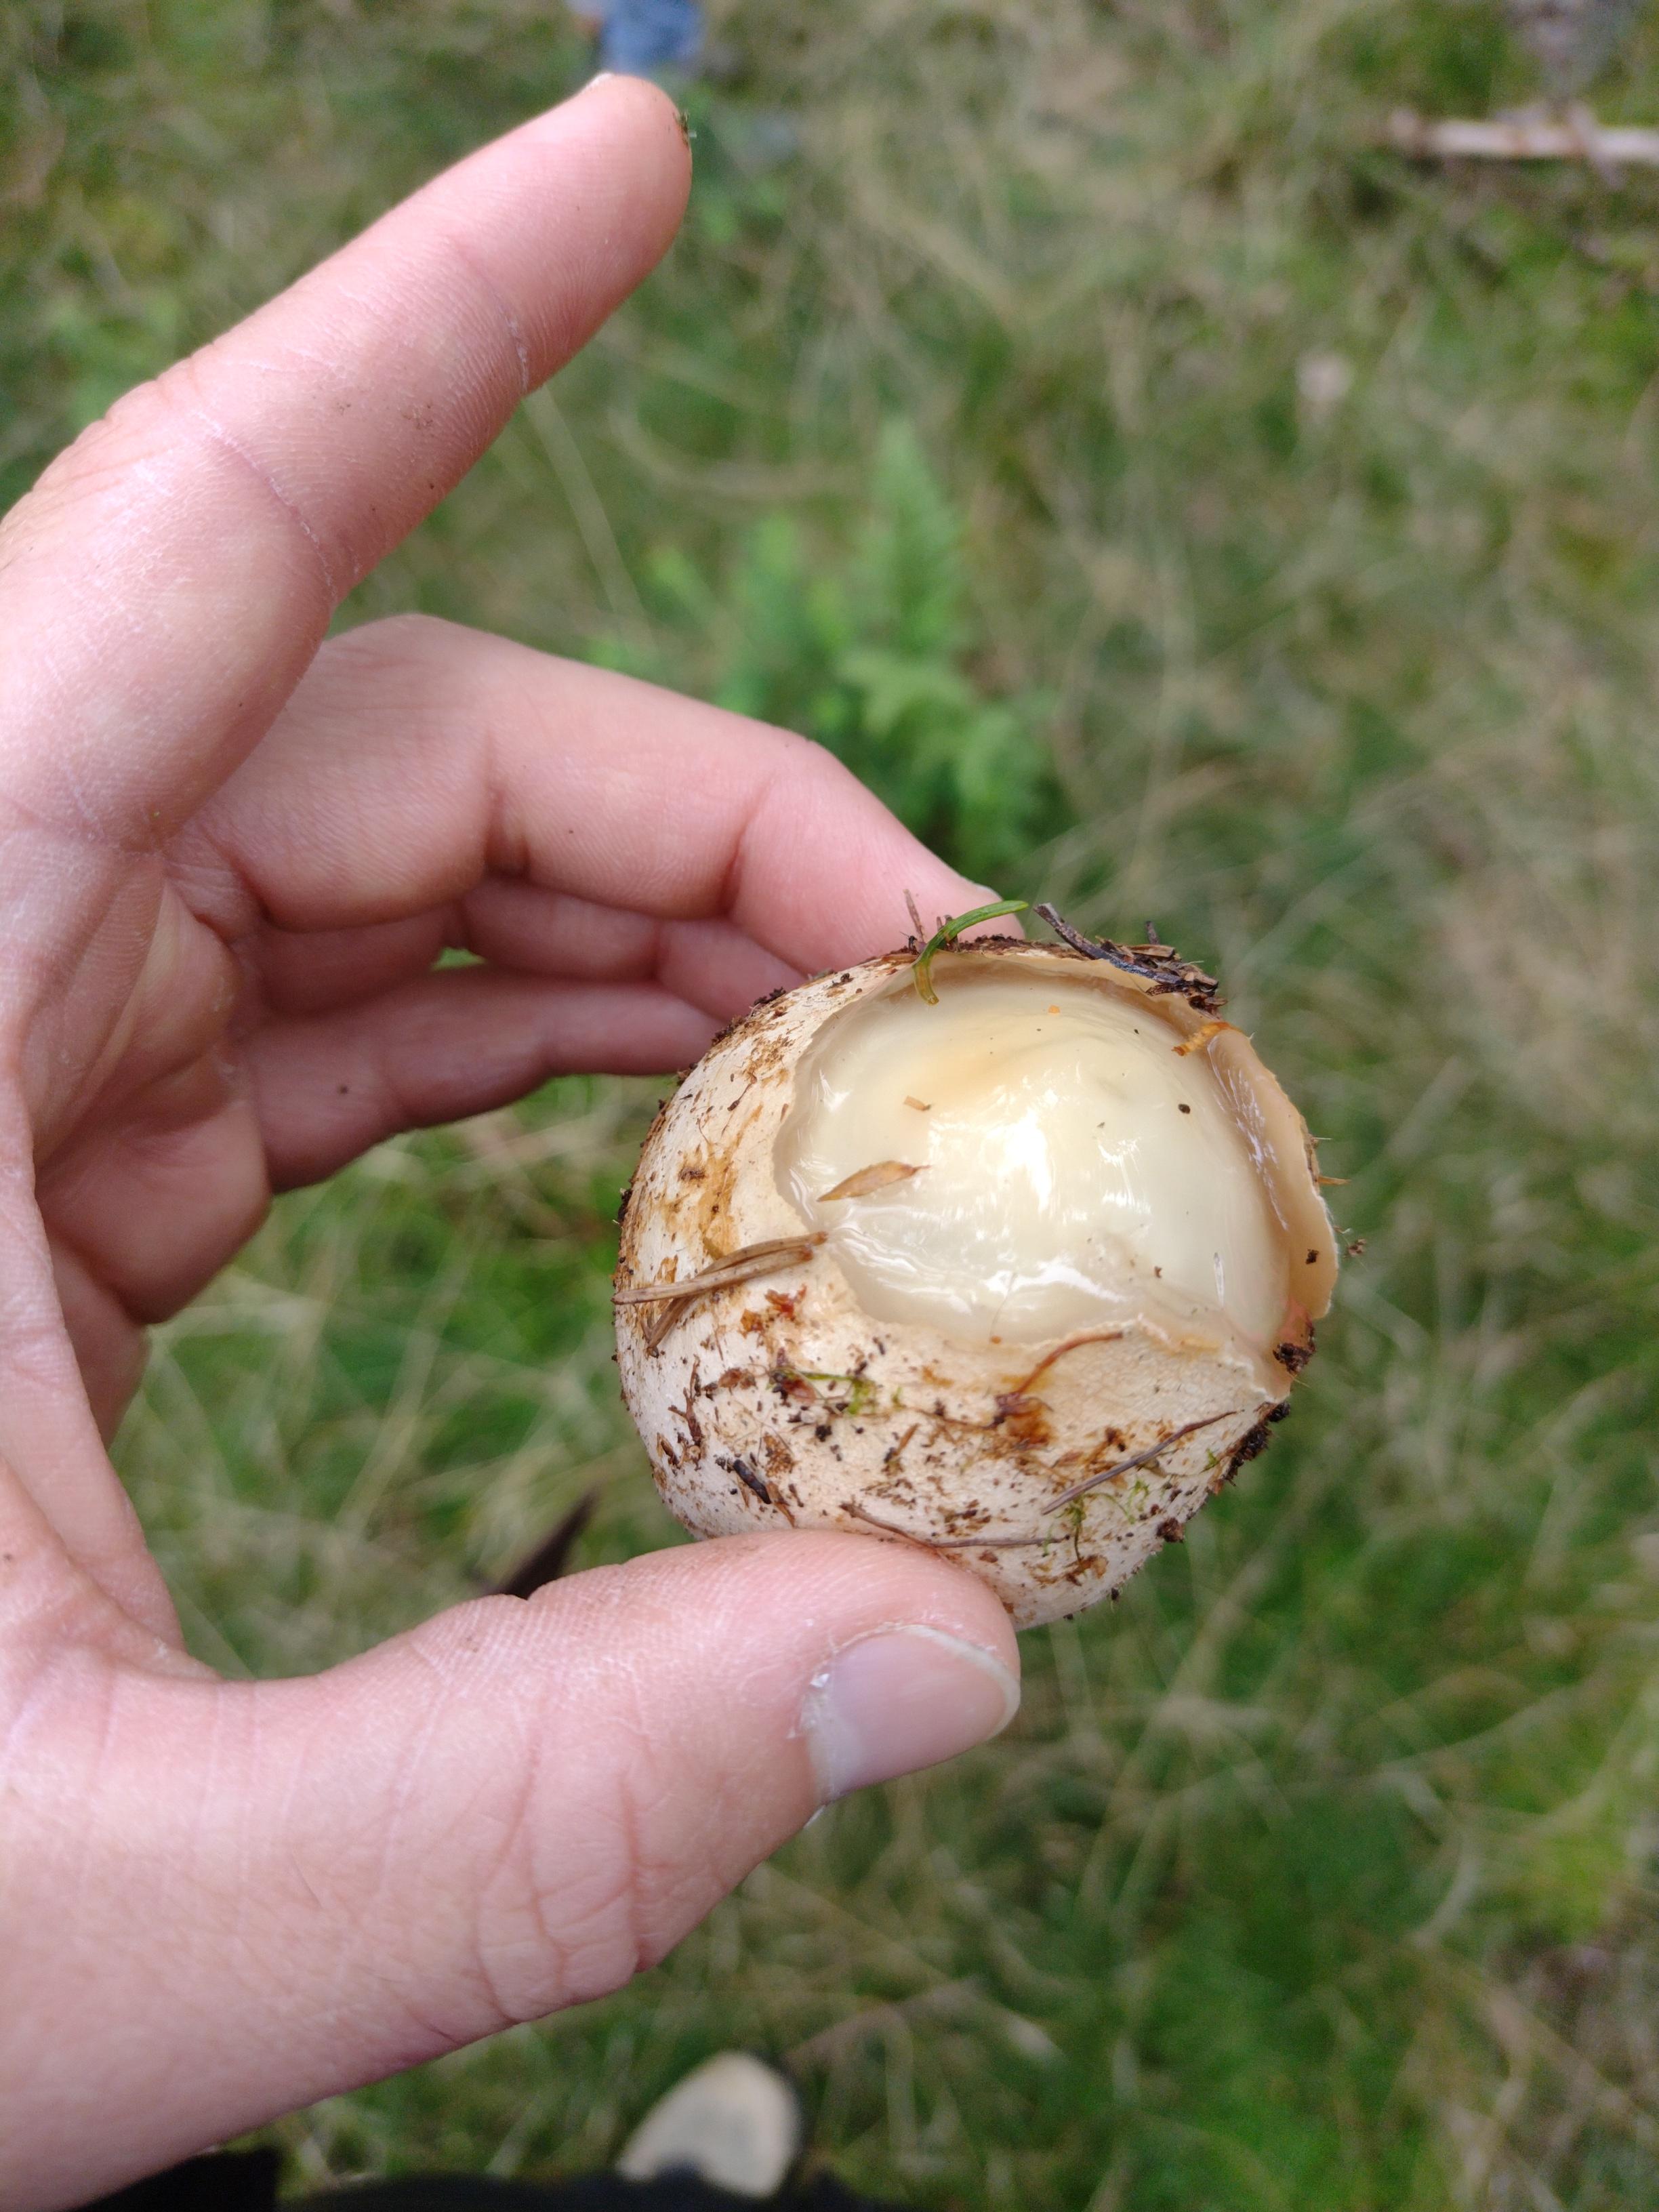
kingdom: Fungi
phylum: Basidiomycota
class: Agaricomycetes
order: Phallales
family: Phallaceae
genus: Phallus
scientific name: Phallus impudicus
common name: almindelig stinksvamp
